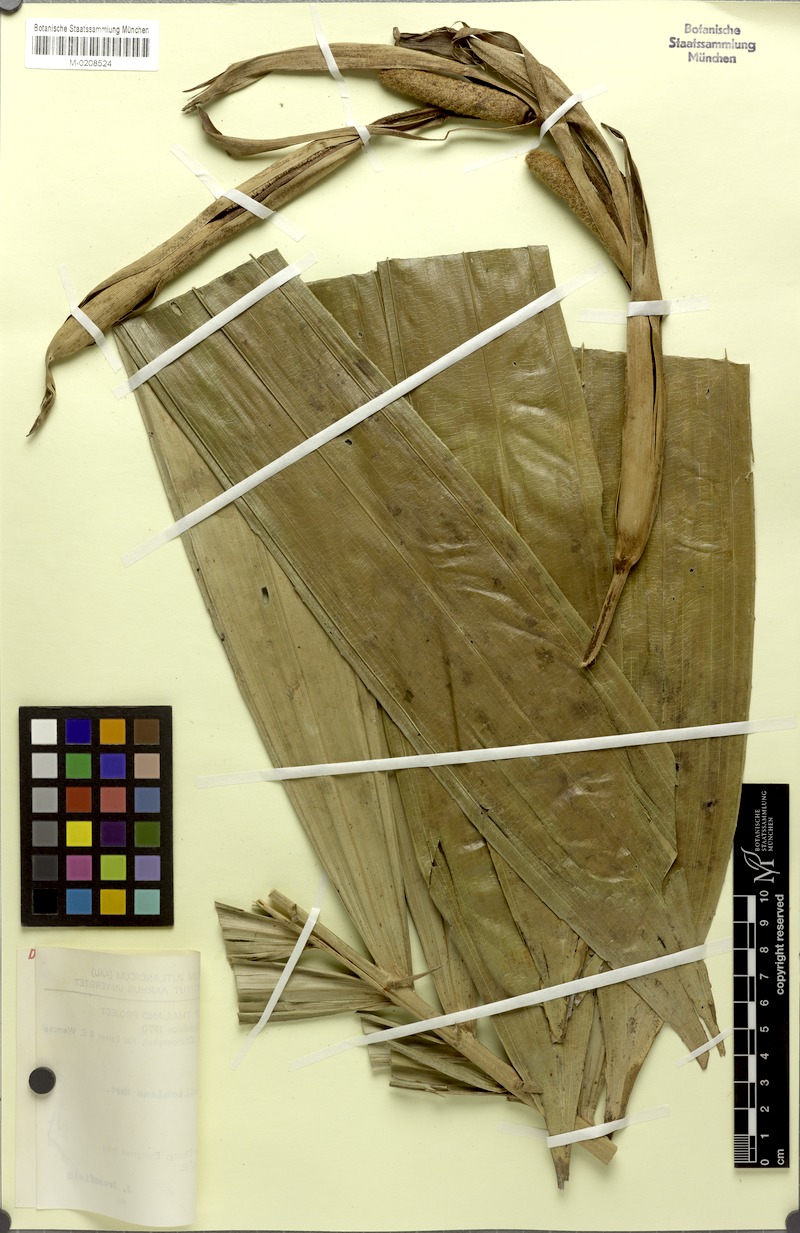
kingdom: Plantae
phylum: Tracheophyta
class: Liliopsida
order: Arecales
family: Arecaceae
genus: Salacca
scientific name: Salacca wallichiana
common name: Rakum palm
